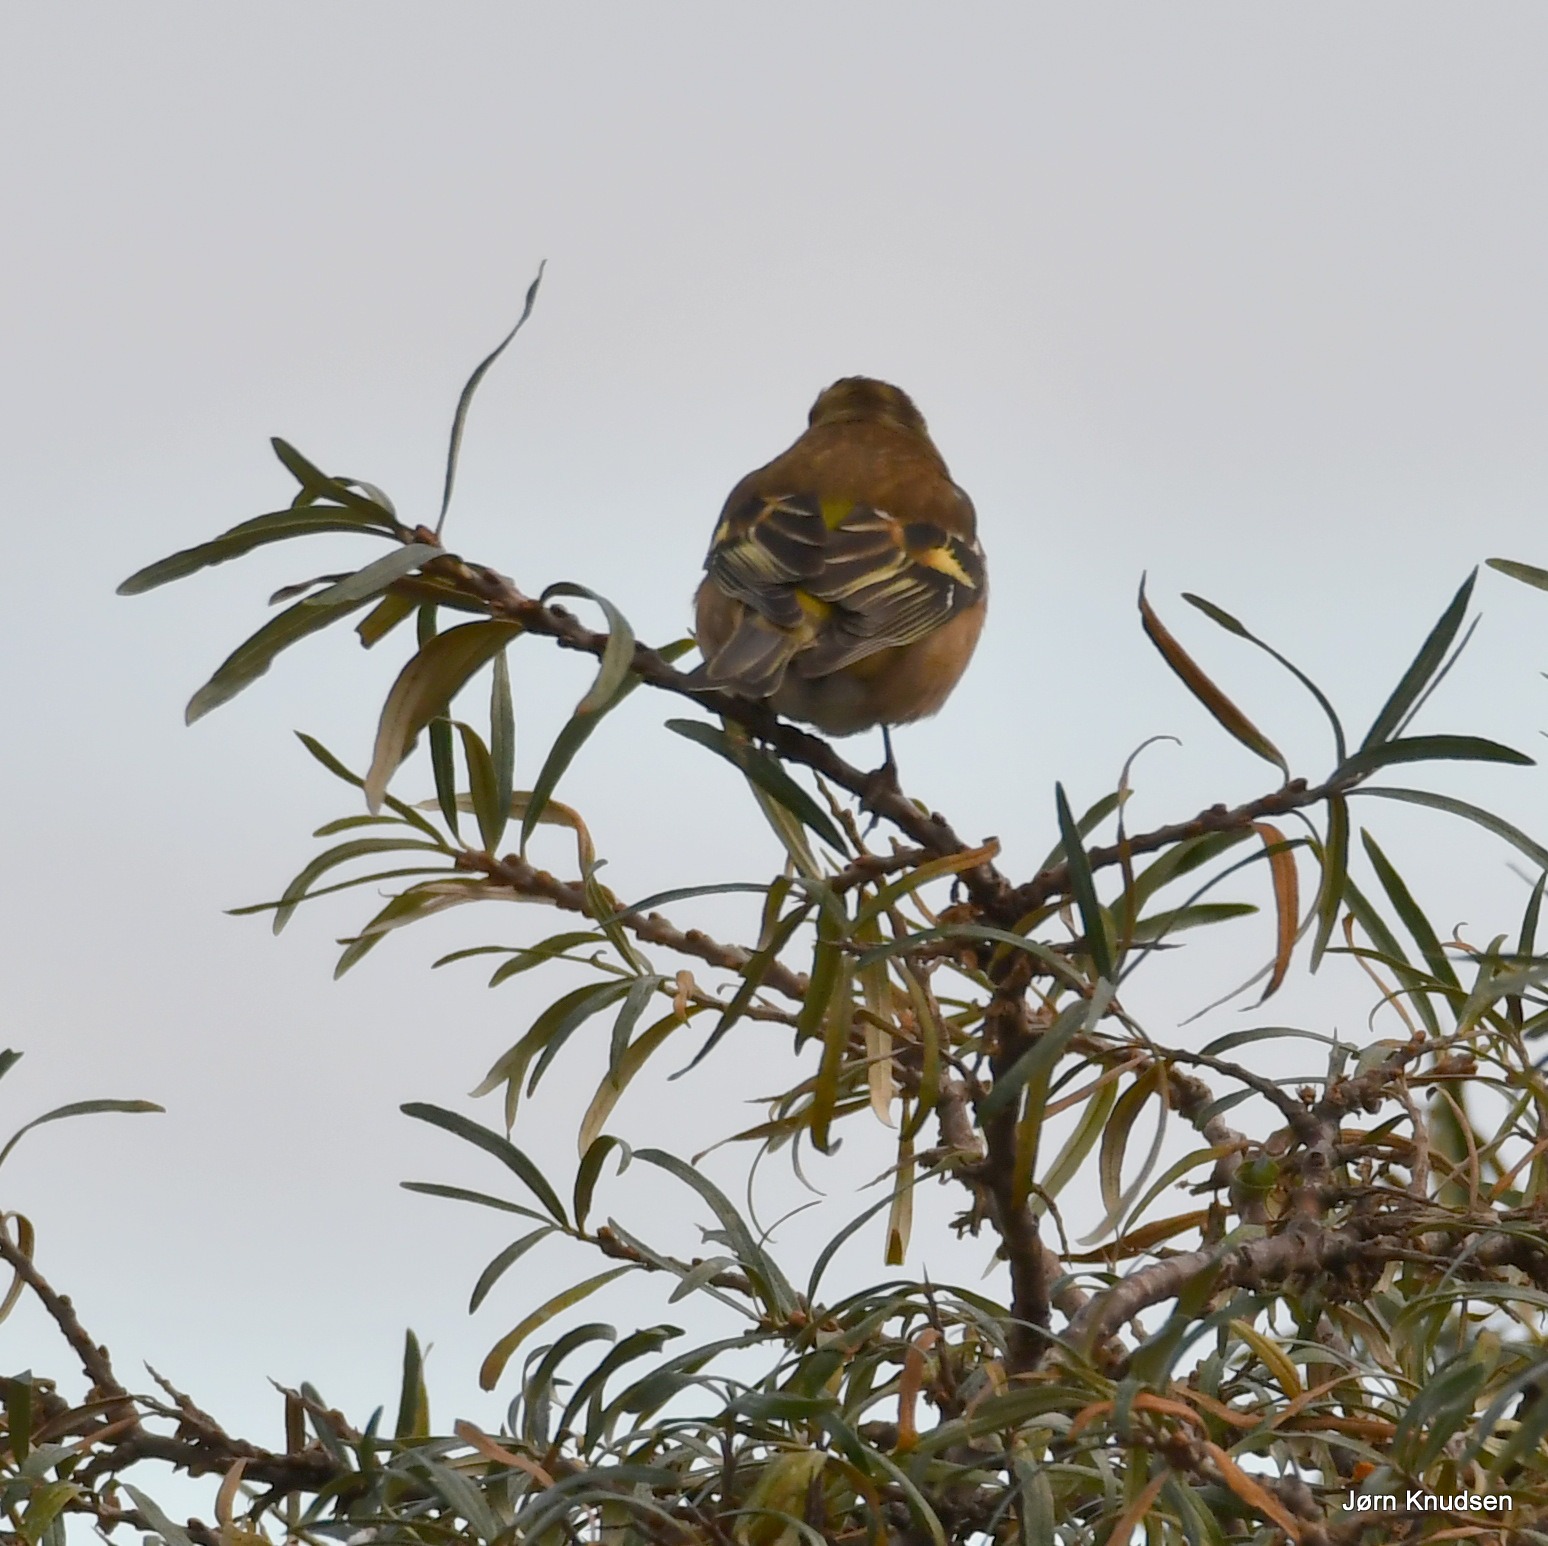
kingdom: Animalia
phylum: Chordata
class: Aves
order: Passeriformes
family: Fringillidae
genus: Fringilla
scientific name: Fringilla coelebs
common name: Bogfinke
